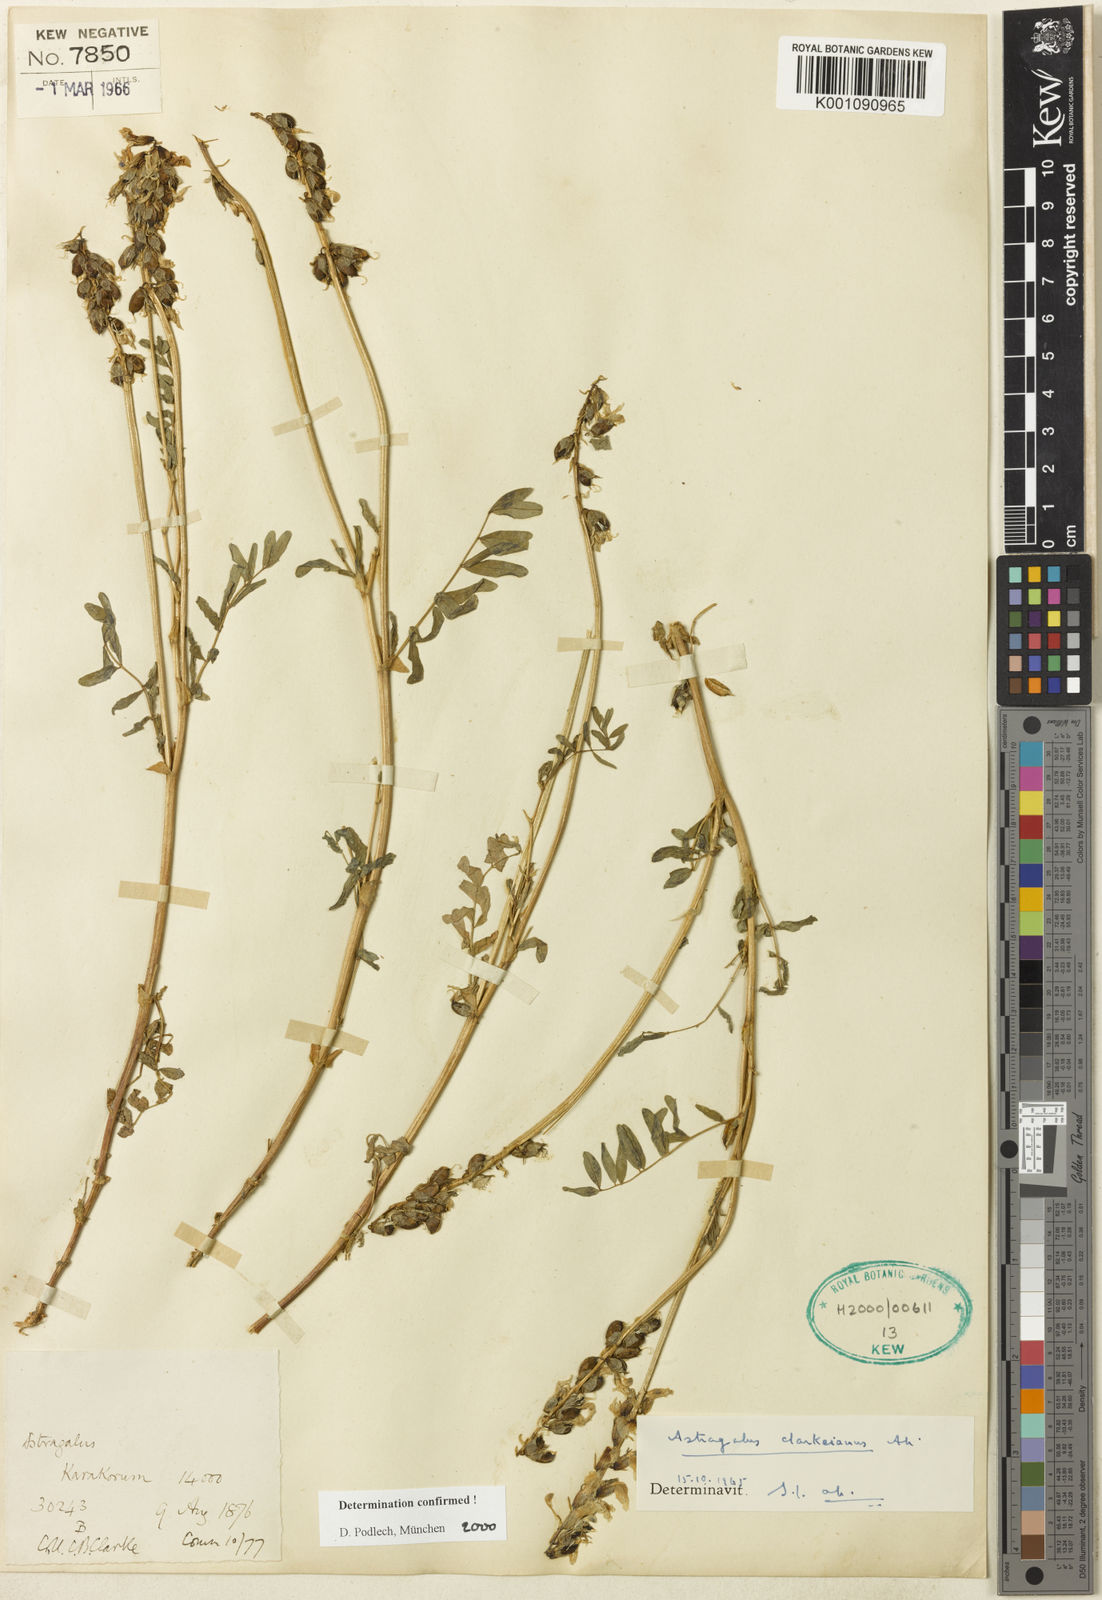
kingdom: Plantae
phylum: Tracheophyta
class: Magnoliopsida
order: Fabales
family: Fabaceae
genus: Astragalus
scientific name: Astragalus
